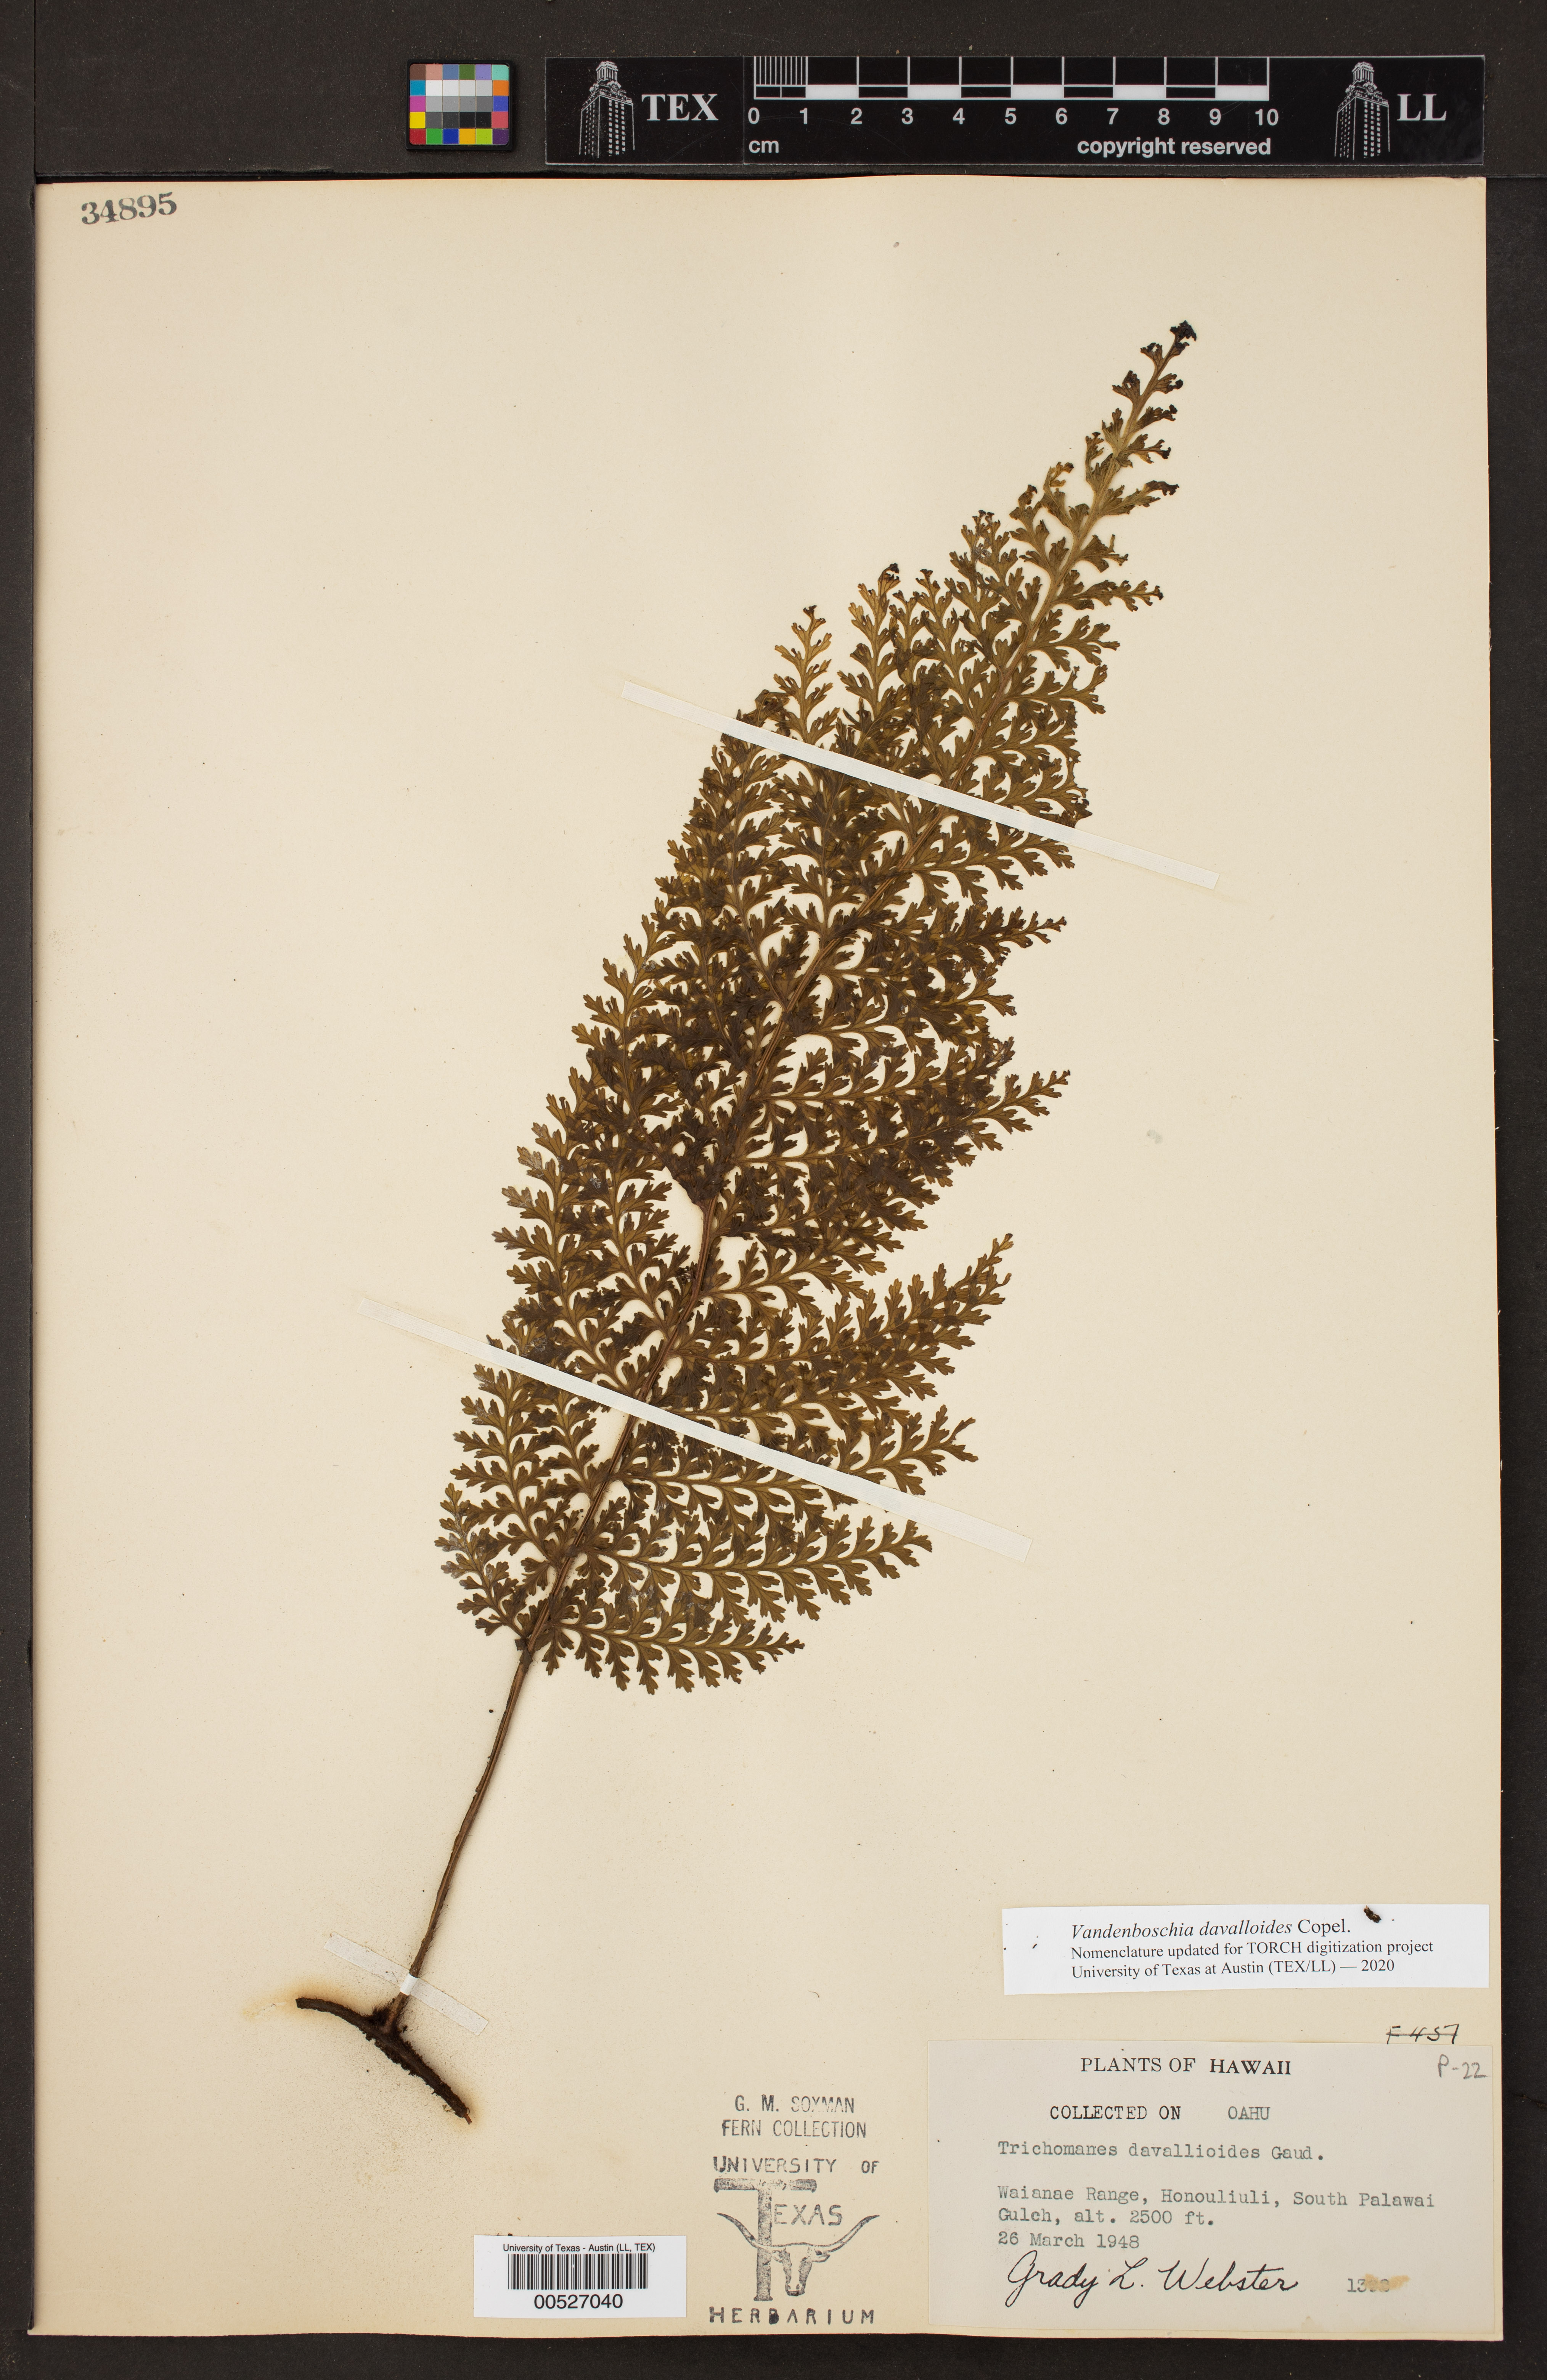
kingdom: Plantae
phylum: Tracheophyta
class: Polypodiopsida
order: Hymenophyllales
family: Hymenophyllaceae
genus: Vandenboschia
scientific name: Vandenboschia davalloides
